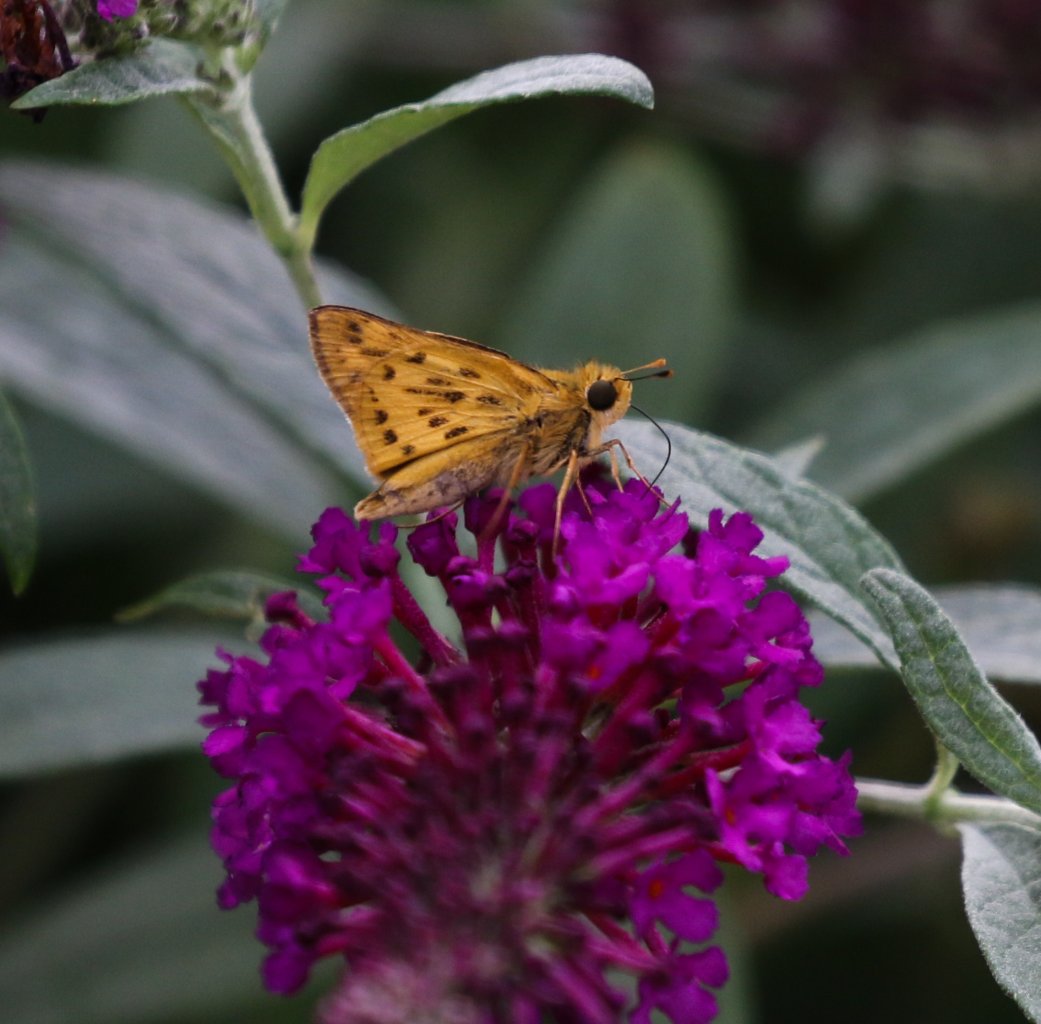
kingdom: Animalia
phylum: Arthropoda
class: Insecta
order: Lepidoptera
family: Hesperiidae
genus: Hylephila
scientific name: Hylephila phyleus
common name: Fiery Skipper
